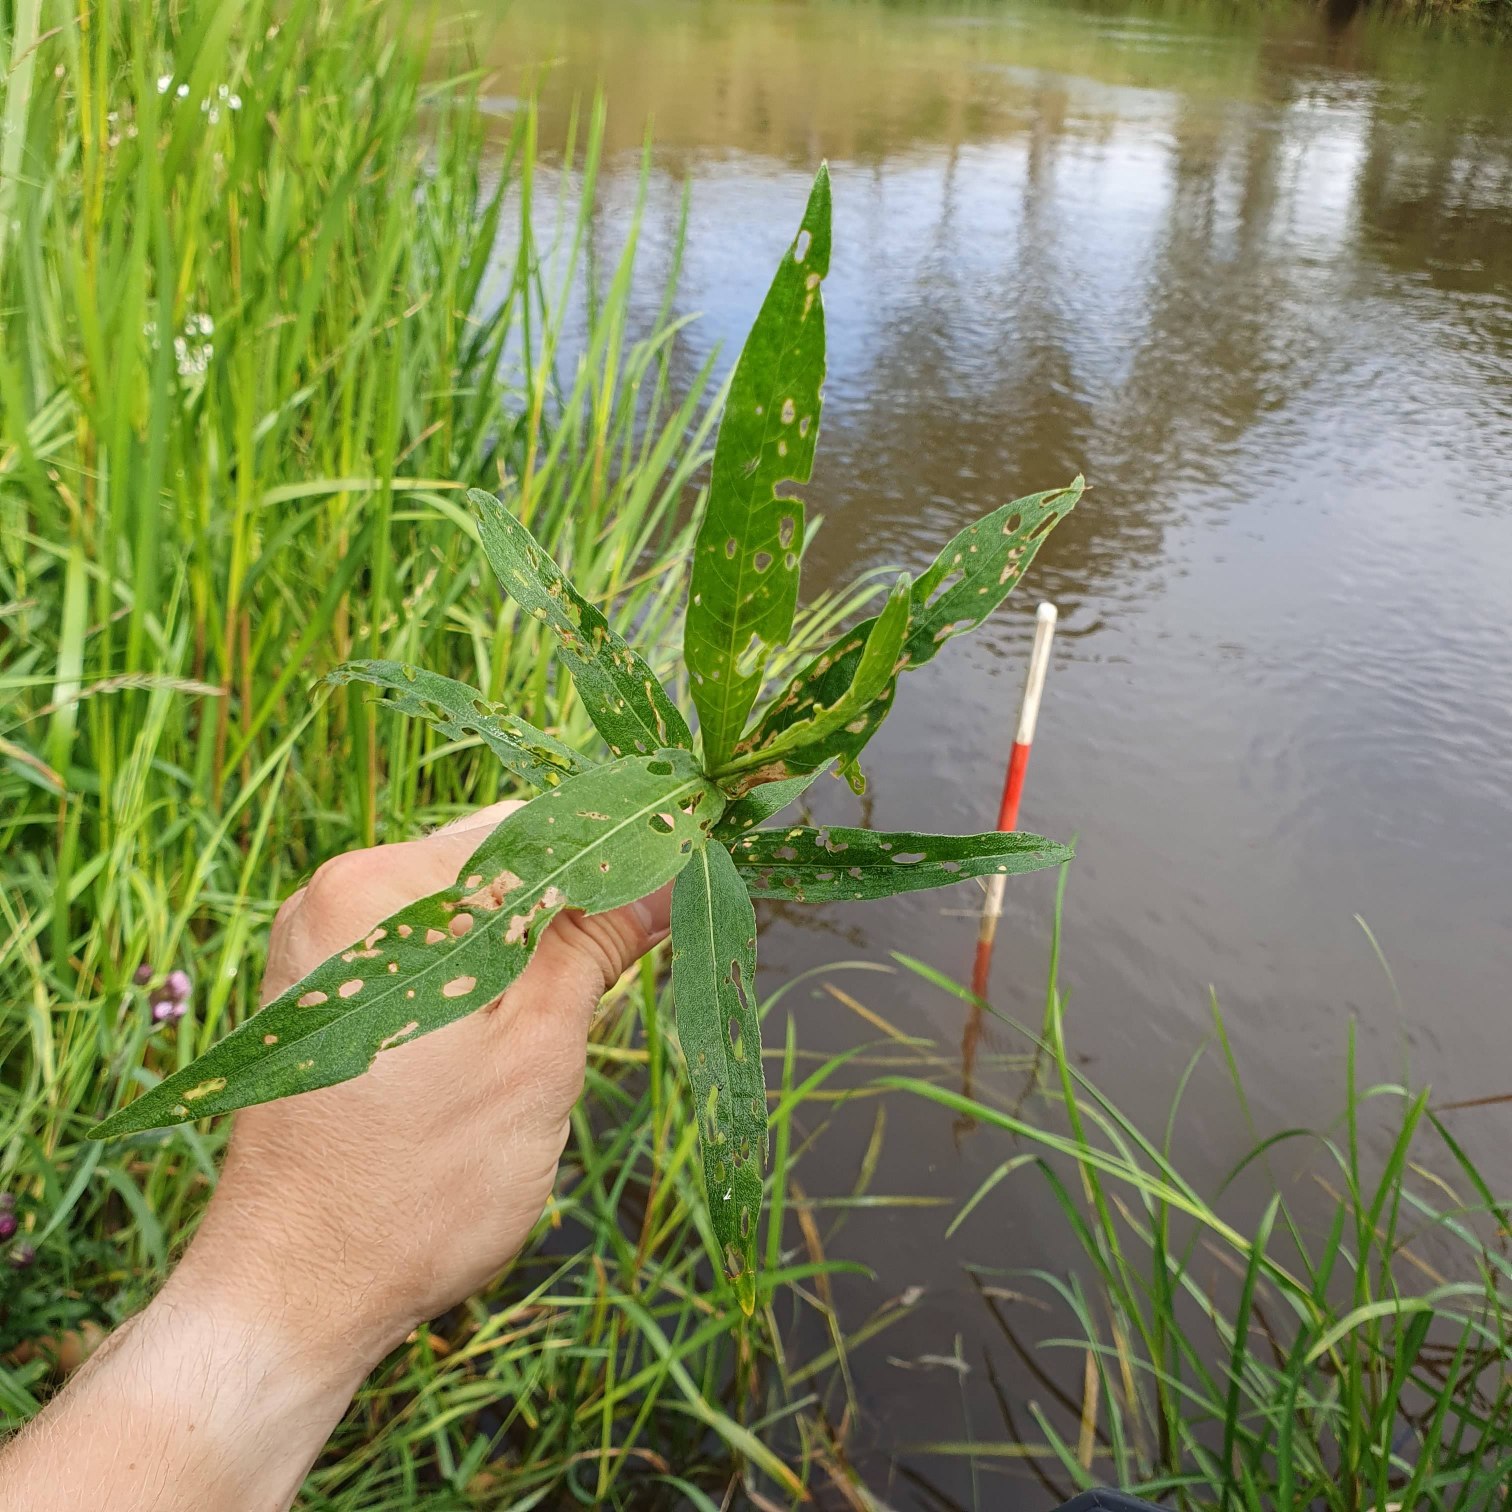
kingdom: Plantae
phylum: Tracheophyta
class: Magnoliopsida
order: Caryophyllales
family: Polygonaceae
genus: Persicaria
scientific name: Persicaria amphibia
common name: Vand-pileurt
